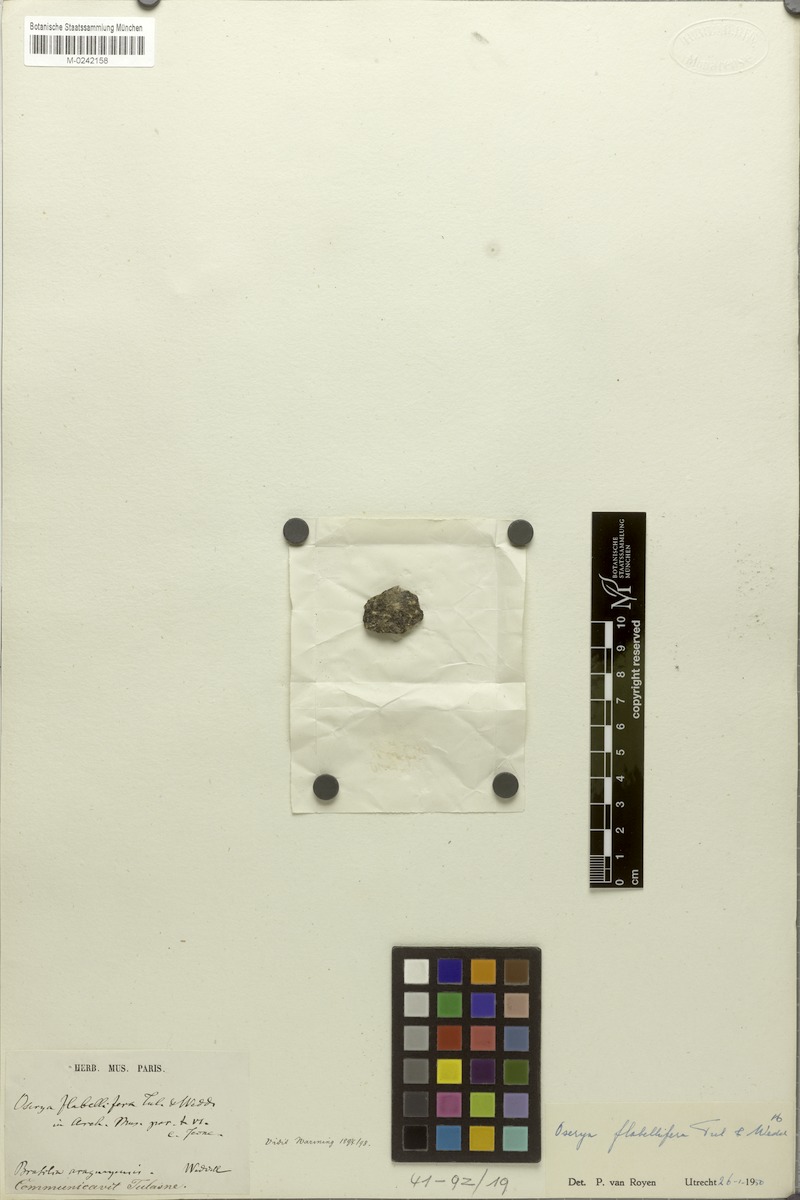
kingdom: Plantae
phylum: Tracheophyta
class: Magnoliopsida
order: Malpighiales
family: Podostemaceae
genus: Castelnavia
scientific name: Castelnavia monandra
